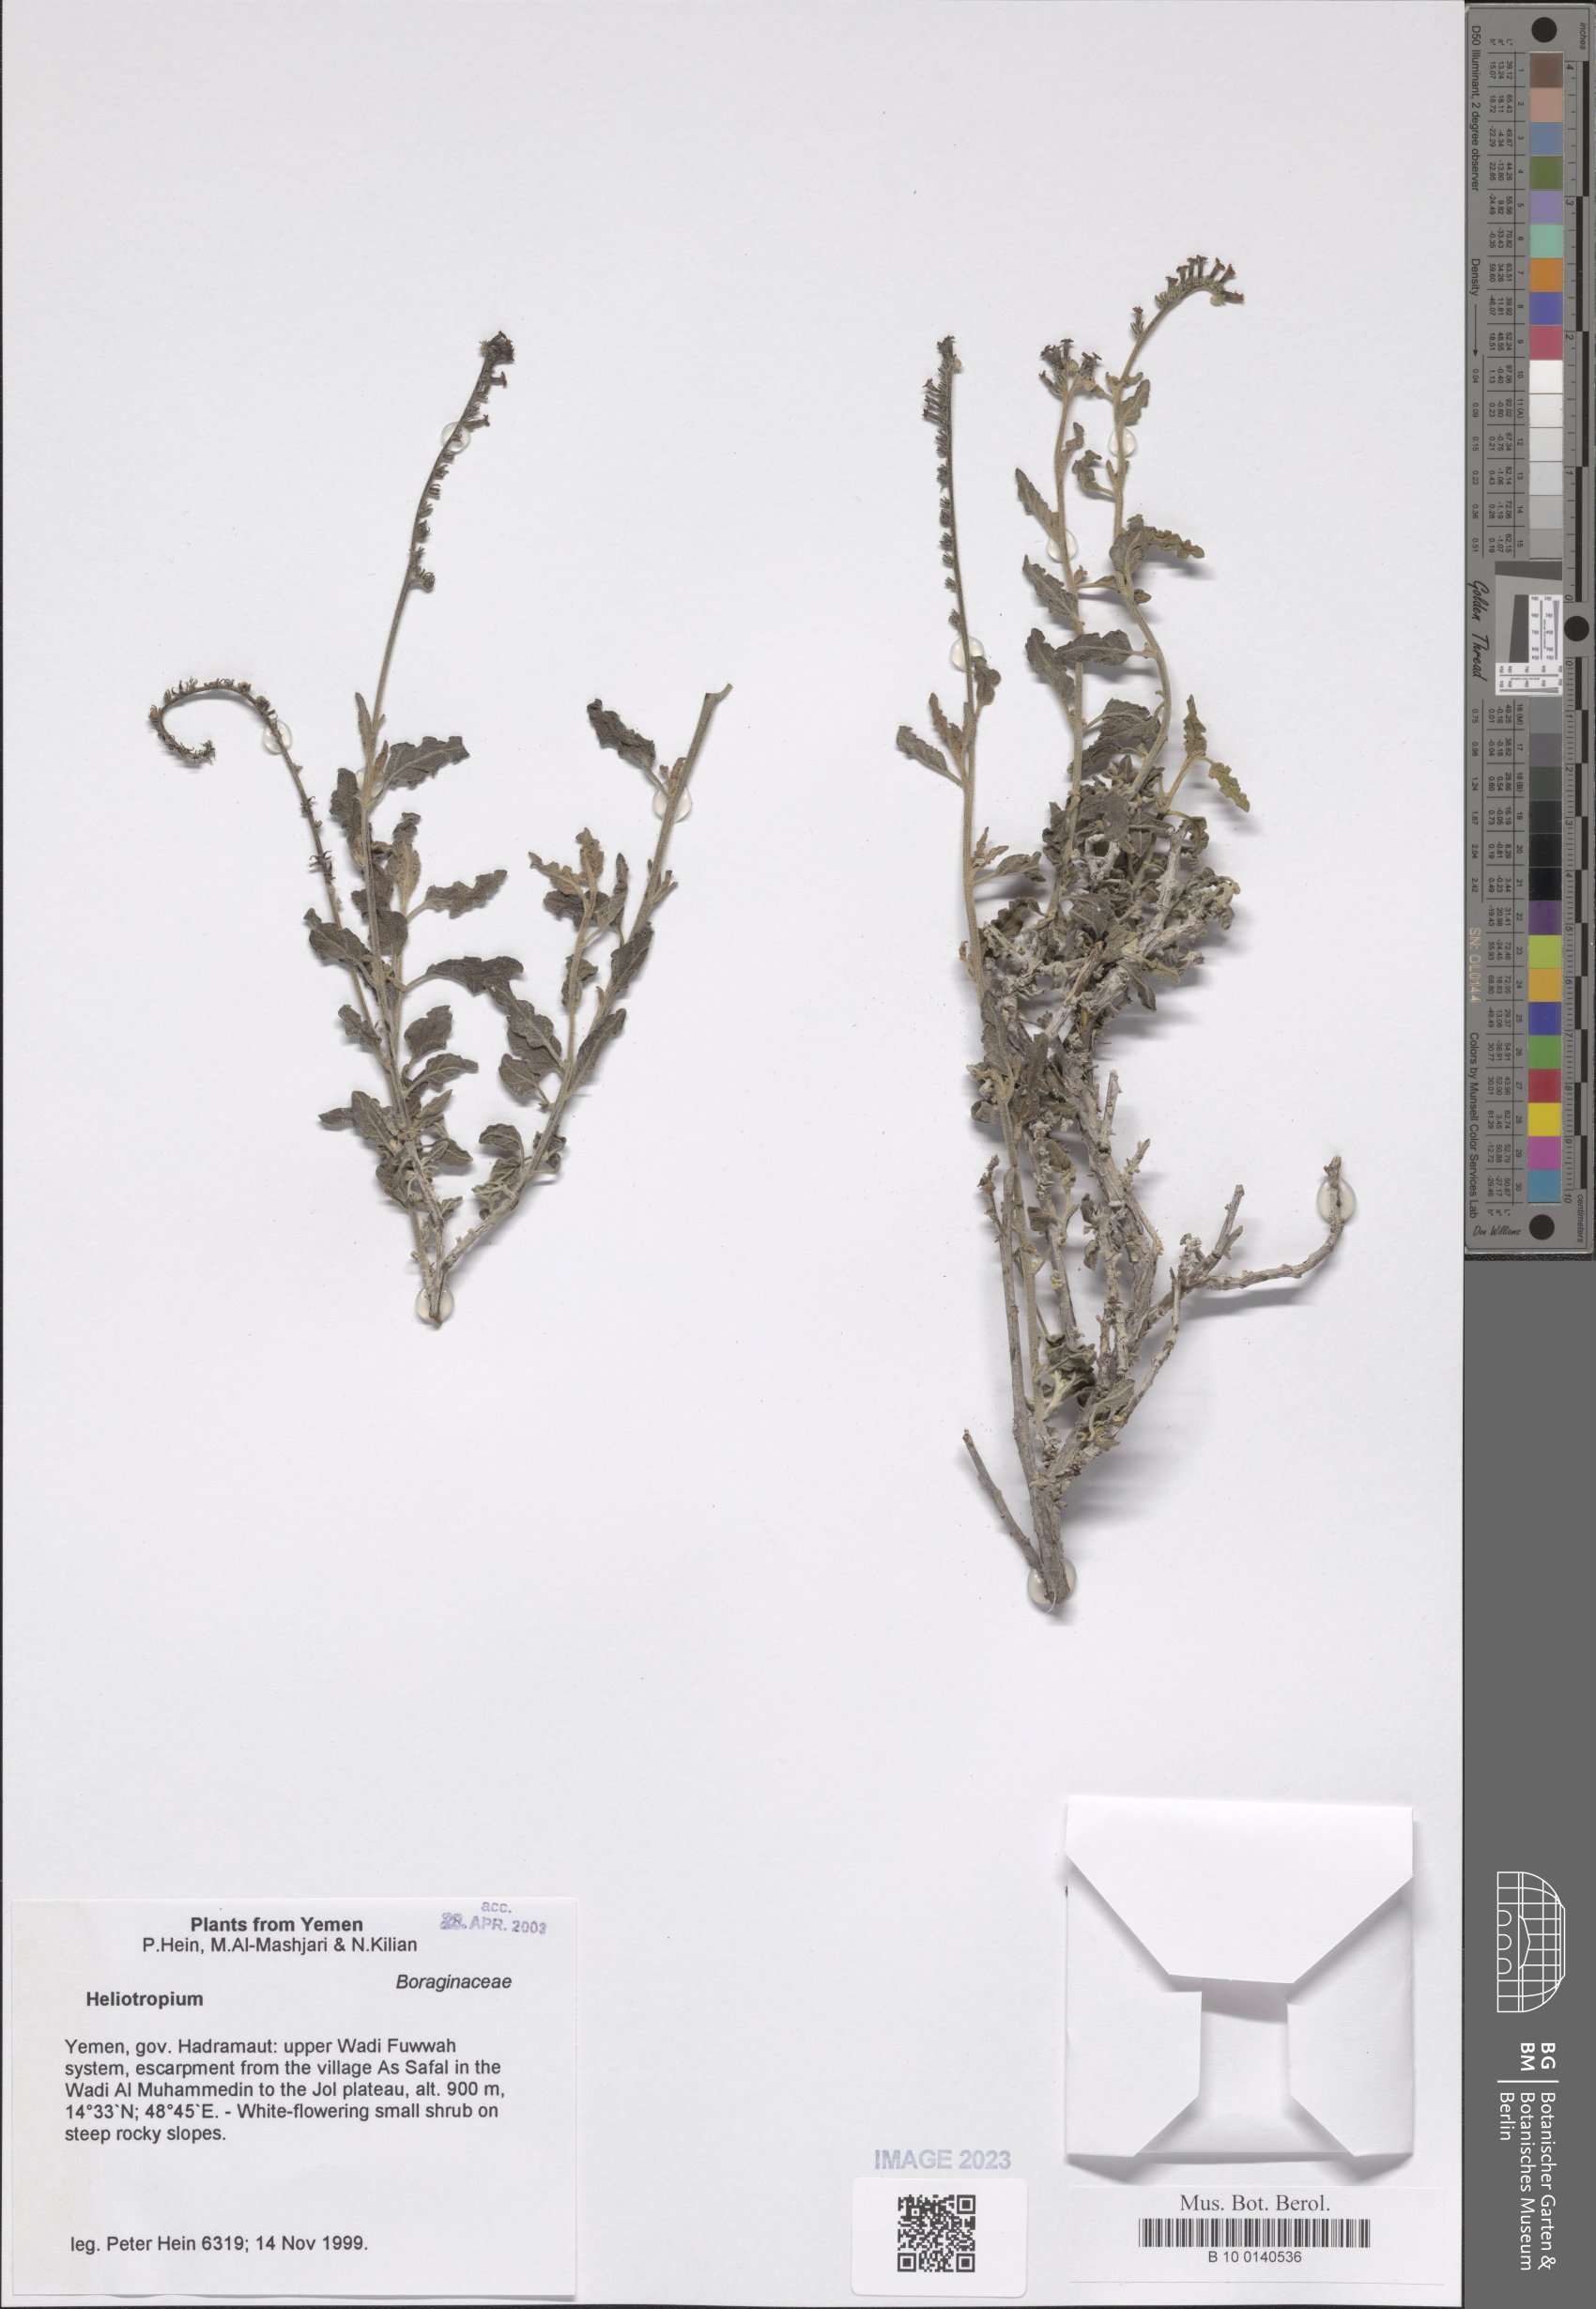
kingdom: Plantae
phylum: Tracheophyta
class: Magnoliopsida
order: Boraginales
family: Heliotropiaceae
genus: Heliotropium
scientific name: Heliotropium
